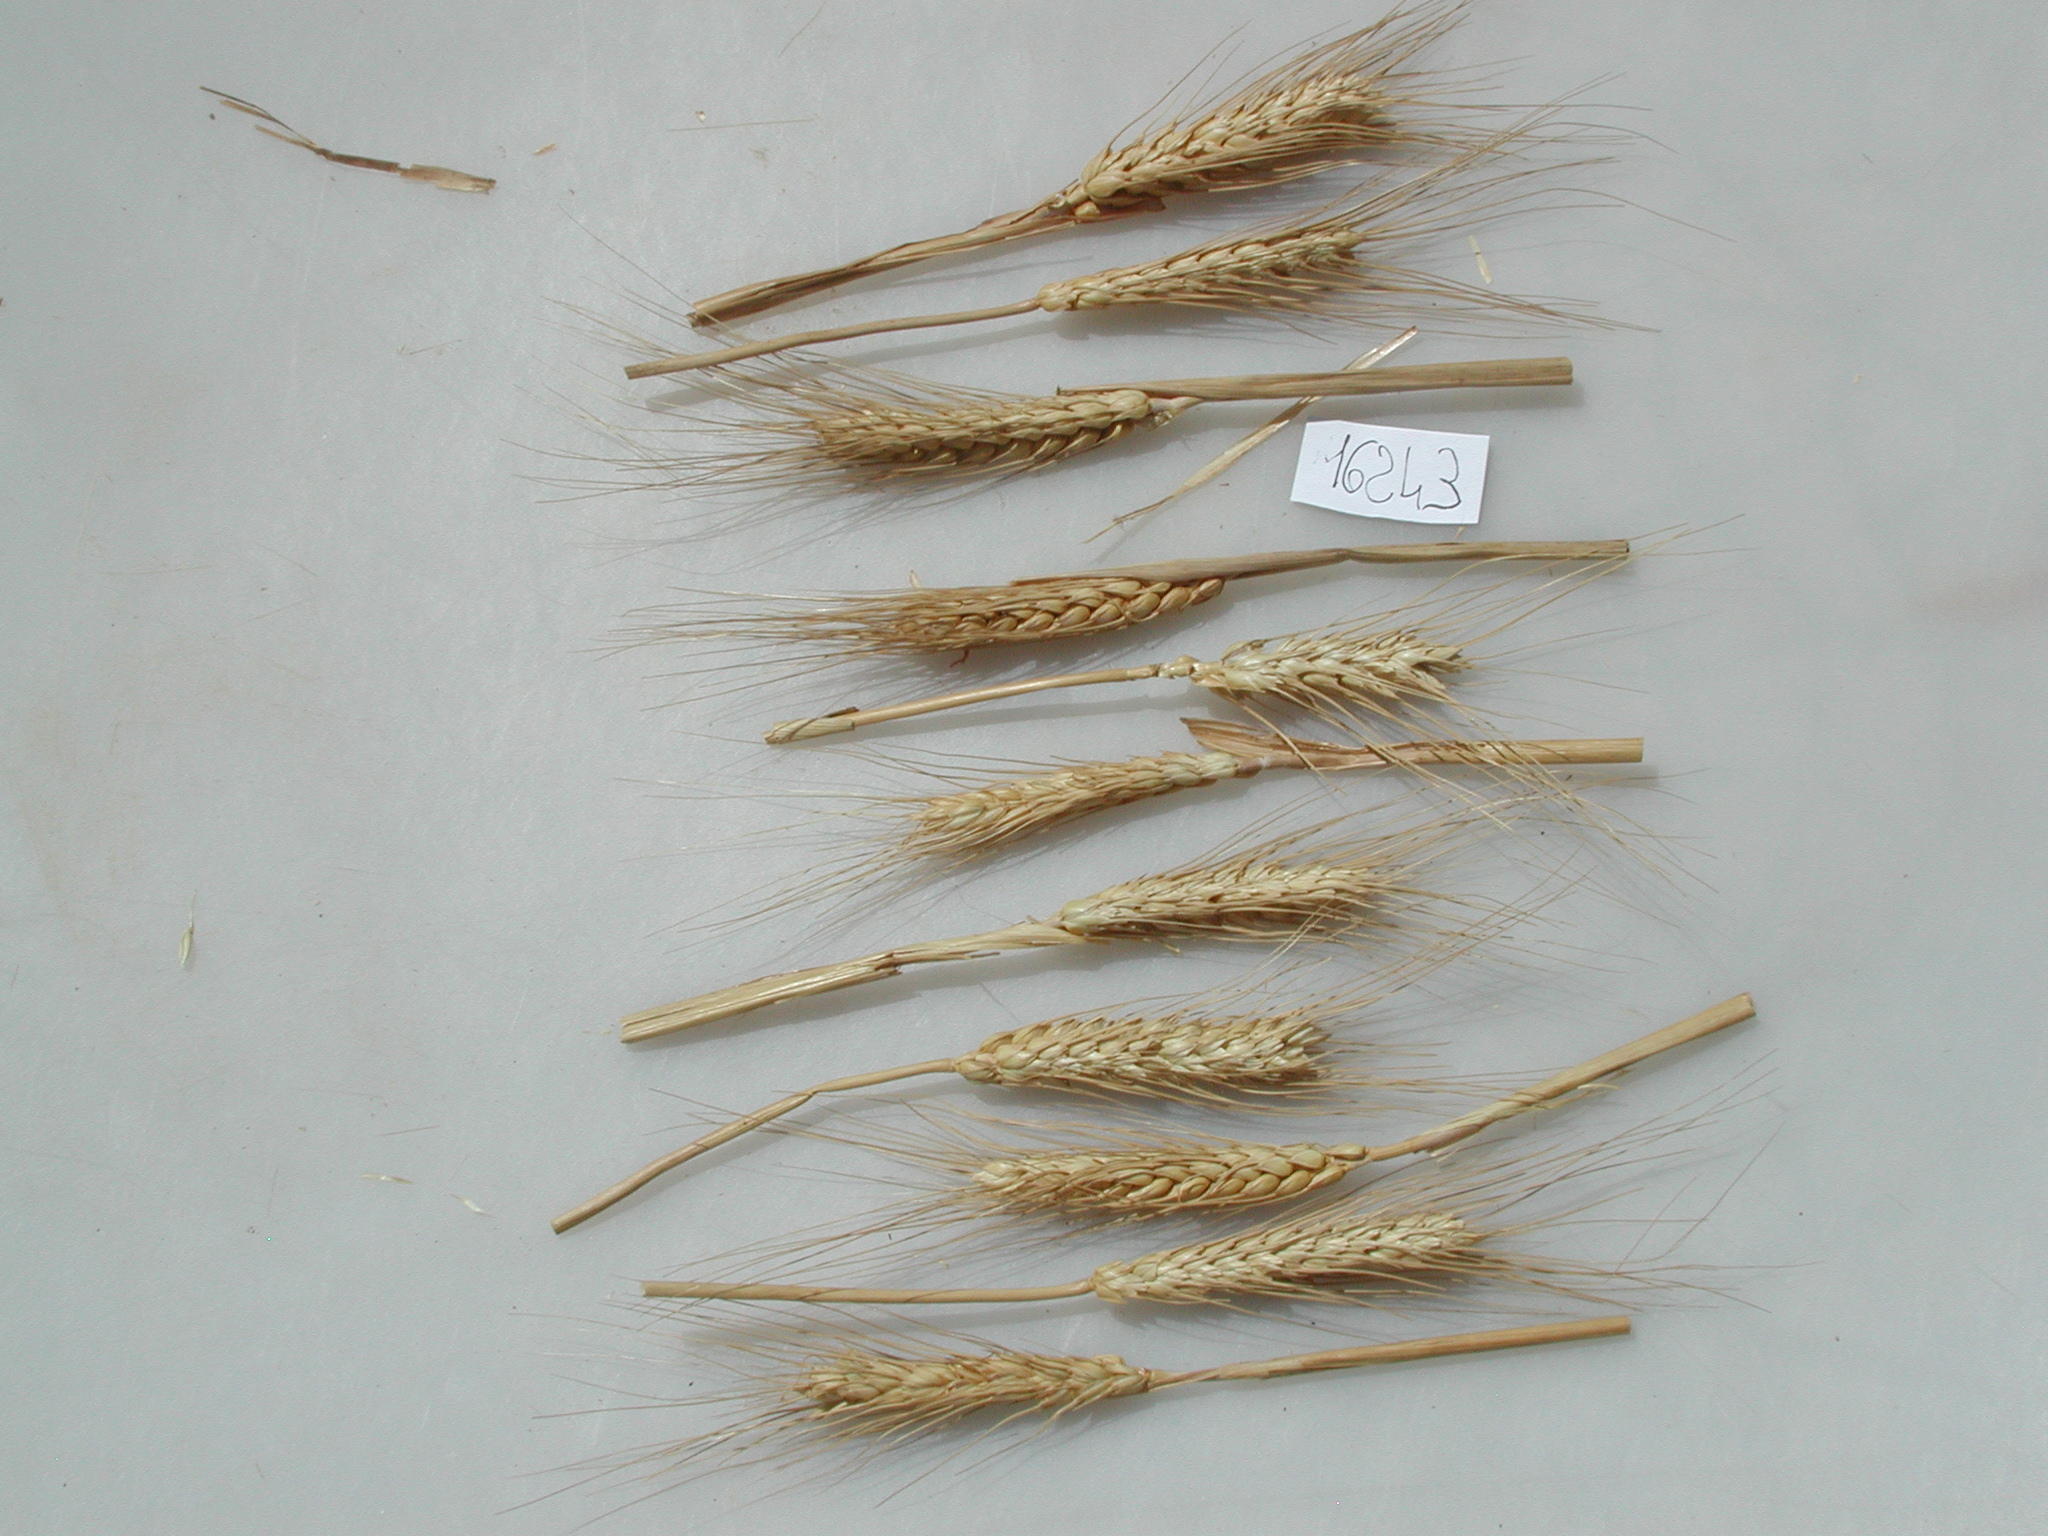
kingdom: Plantae
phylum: Tracheophyta
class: Liliopsida
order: Poales
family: Poaceae
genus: Triticum
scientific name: Triticum
